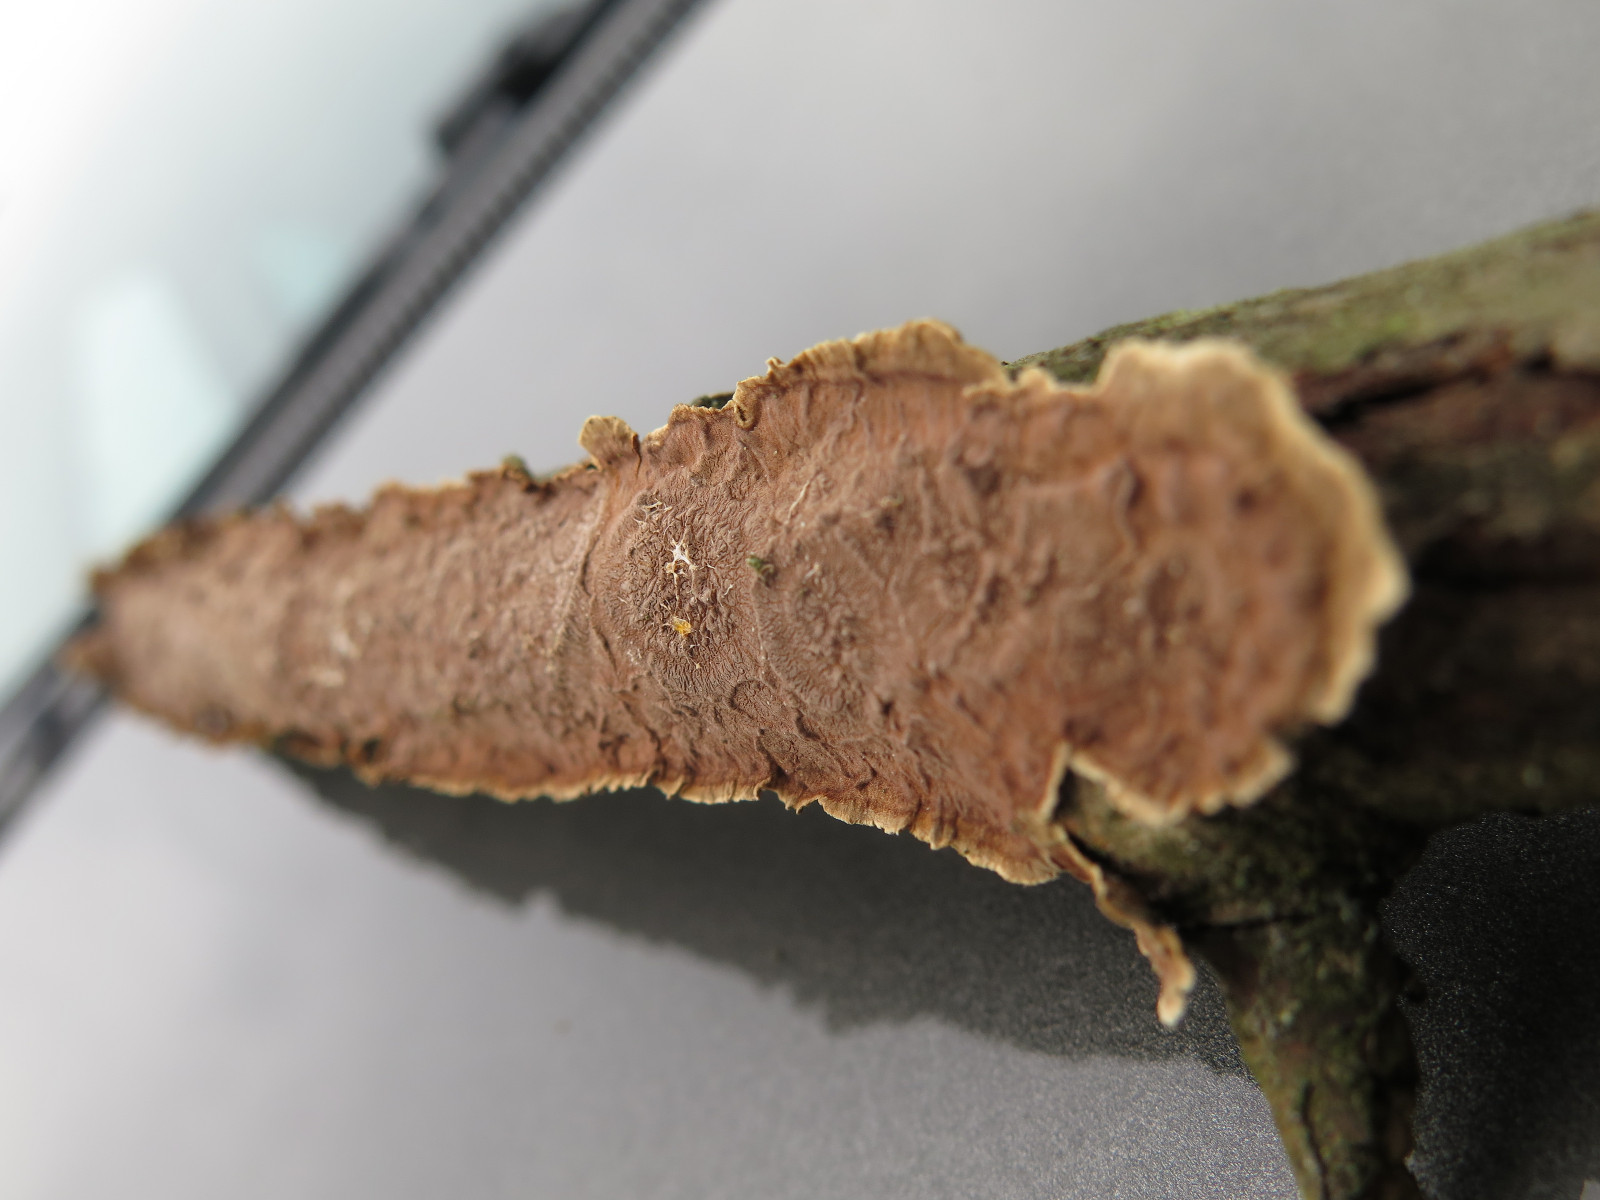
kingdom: Fungi
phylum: Basidiomycota
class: Agaricomycetes
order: Hymenochaetales
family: Hymenochaetaceae
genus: Hydnoporia
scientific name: Hydnoporia tabacina
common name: tobaksbrun ruslædersvamp
